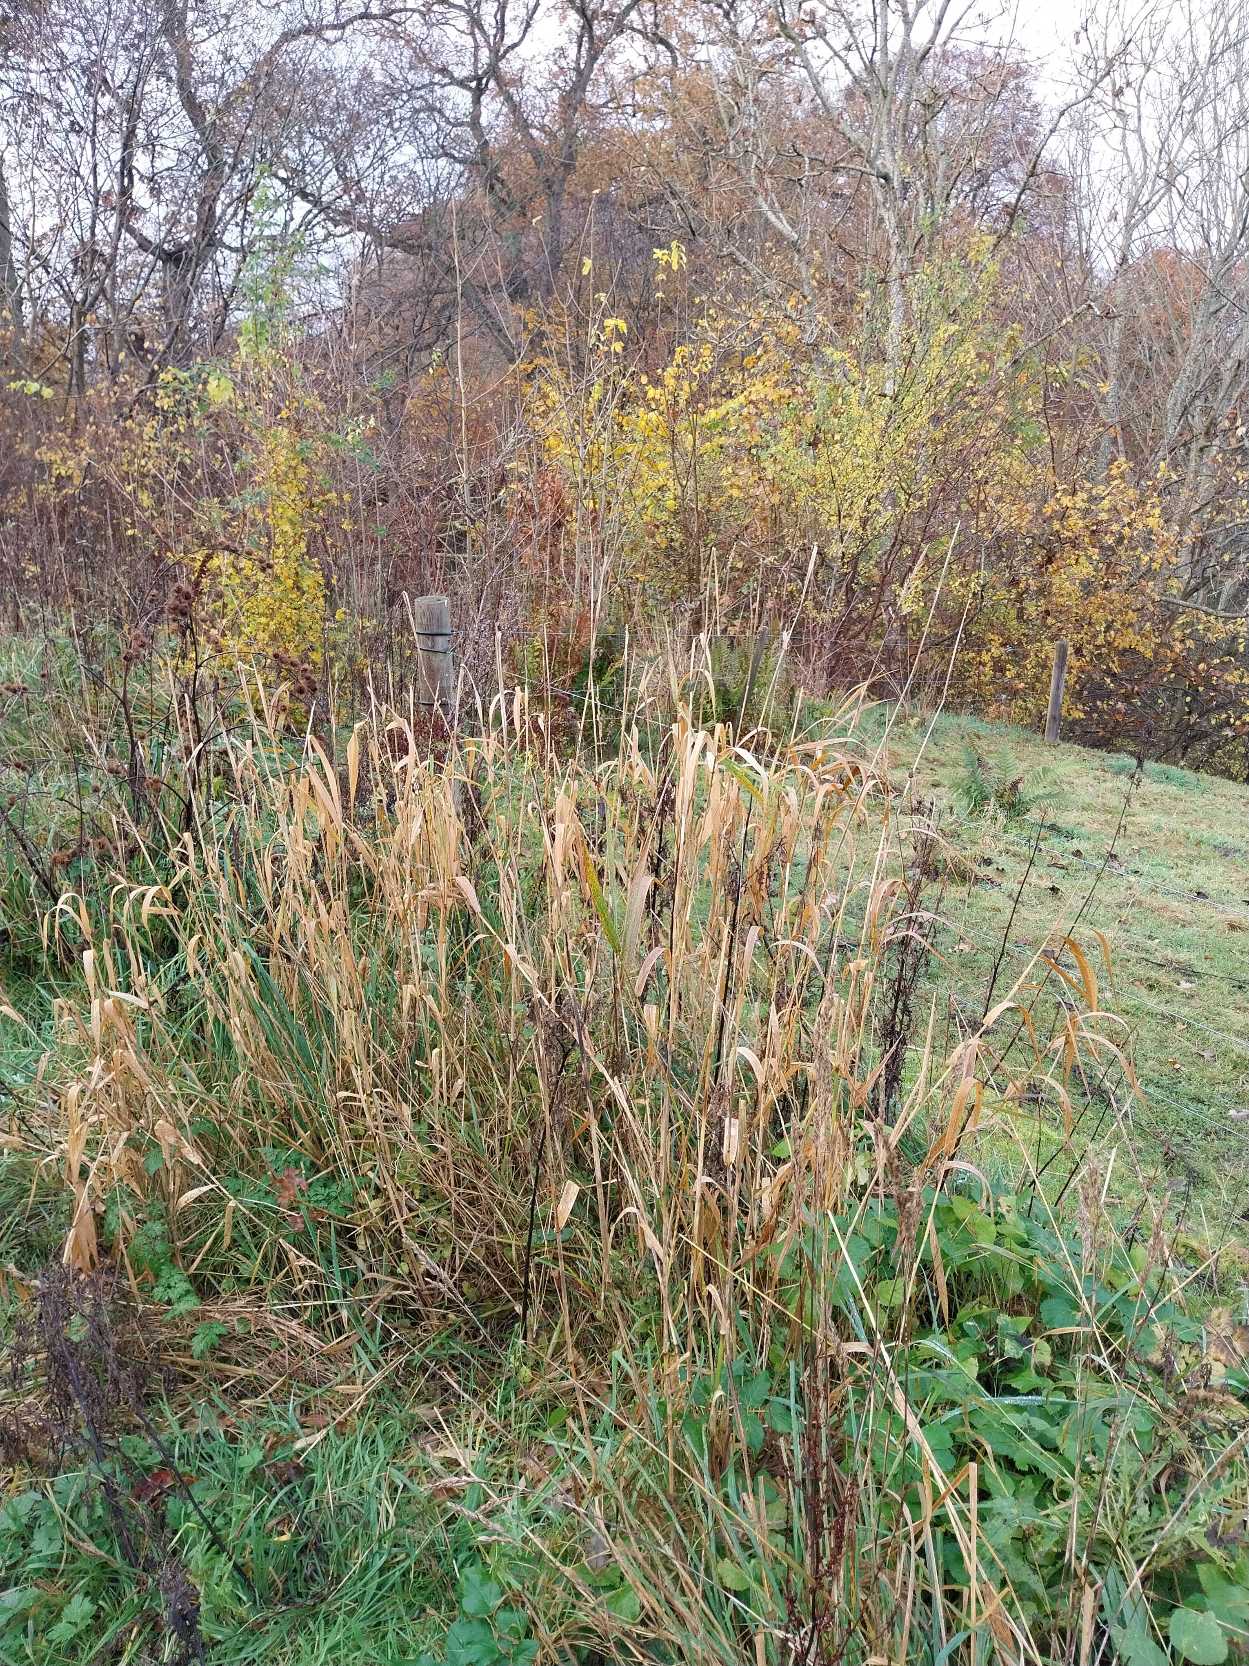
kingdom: Plantae
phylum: Tracheophyta
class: Liliopsida
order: Poales
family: Poaceae
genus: Phalaris
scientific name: Phalaris arundinacea
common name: Rørgræs
